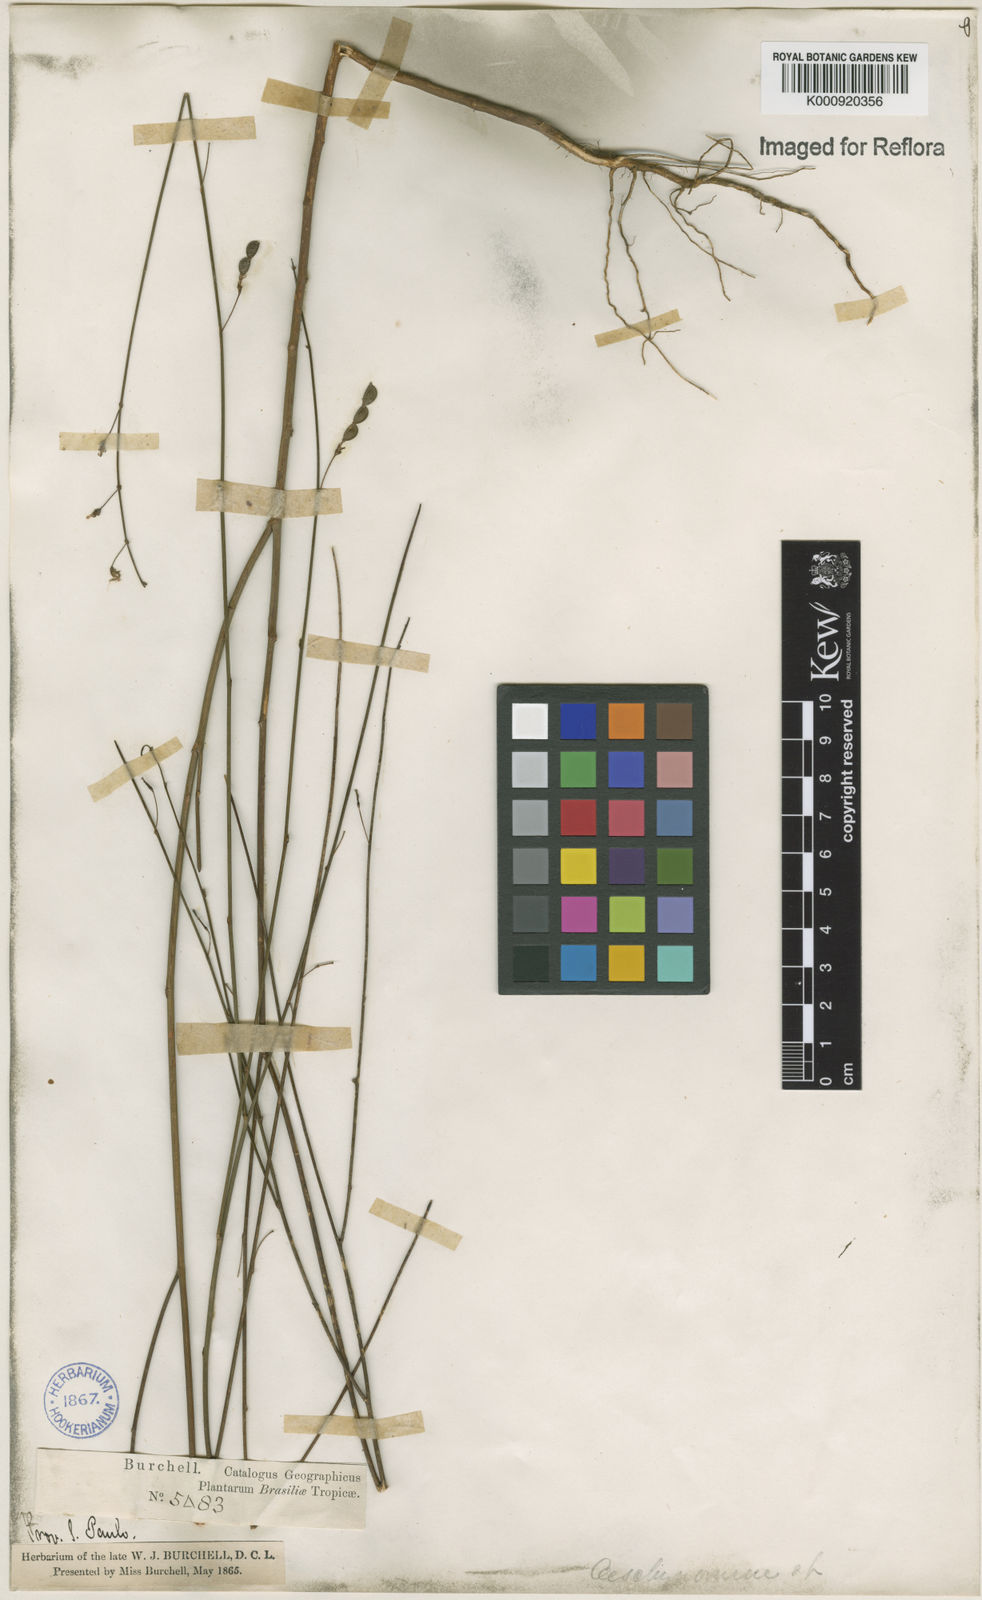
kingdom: Plantae
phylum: Tracheophyta
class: Magnoliopsida
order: Fabales
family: Fabaceae
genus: Ctenodon
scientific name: Ctenodon paniculatus
